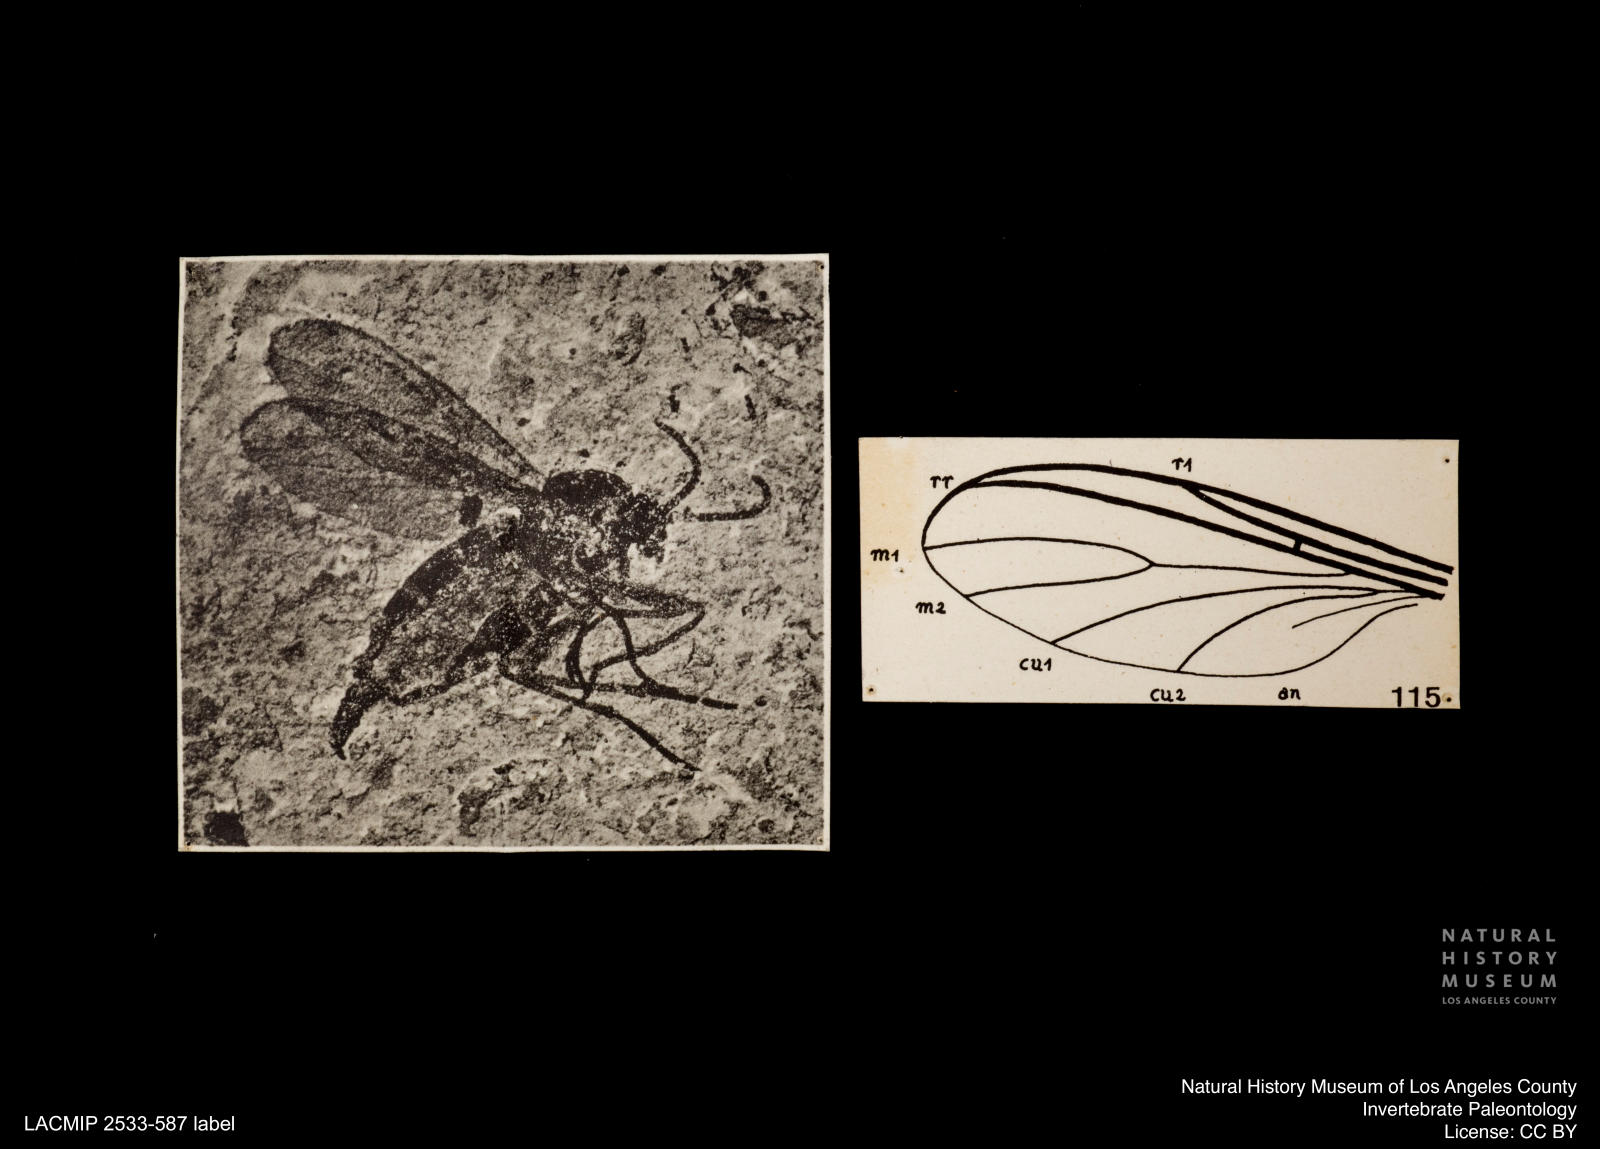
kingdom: Animalia
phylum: Arthropoda
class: Insecta
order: Diptera
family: Sciaridae
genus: Sciara
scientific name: Sciara lengersdorfi
